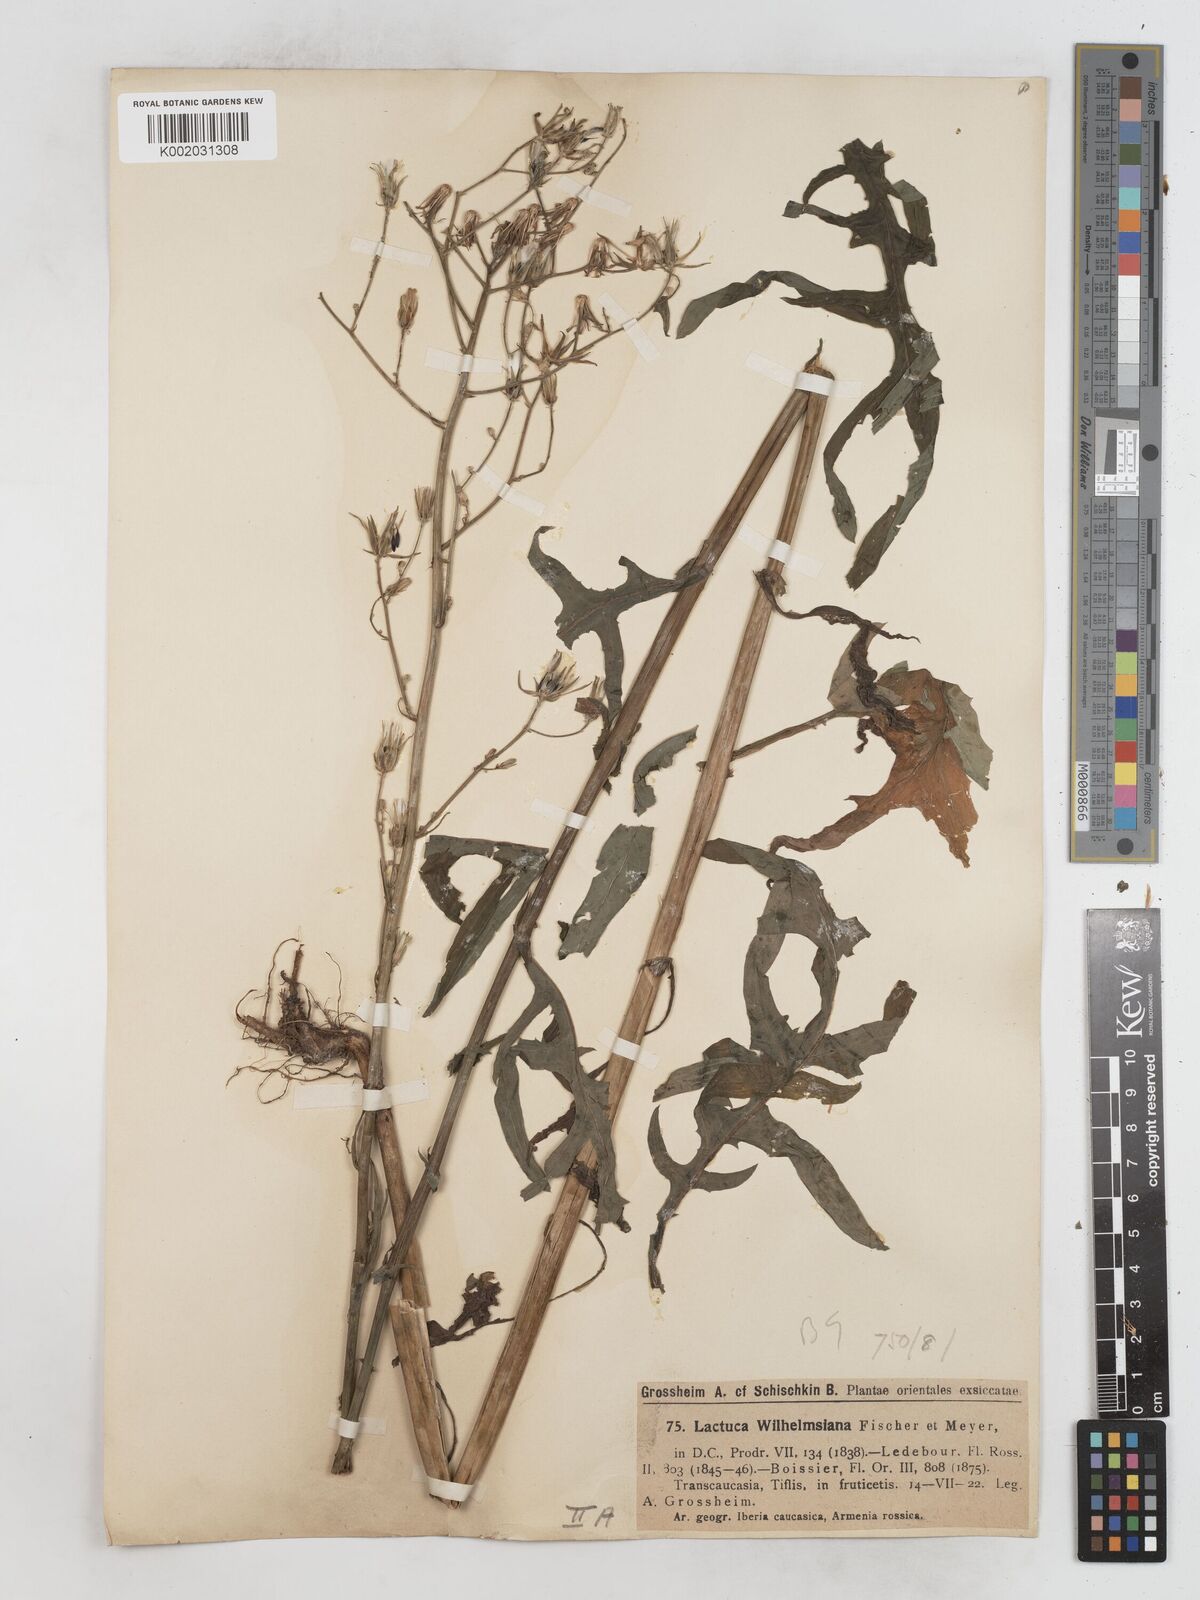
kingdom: Plantae
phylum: Tracheophyta
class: Magnoliopsida
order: Asterales
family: Asteraceae
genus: Lactuca
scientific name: Lactuca quercina
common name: Wild lettuce
